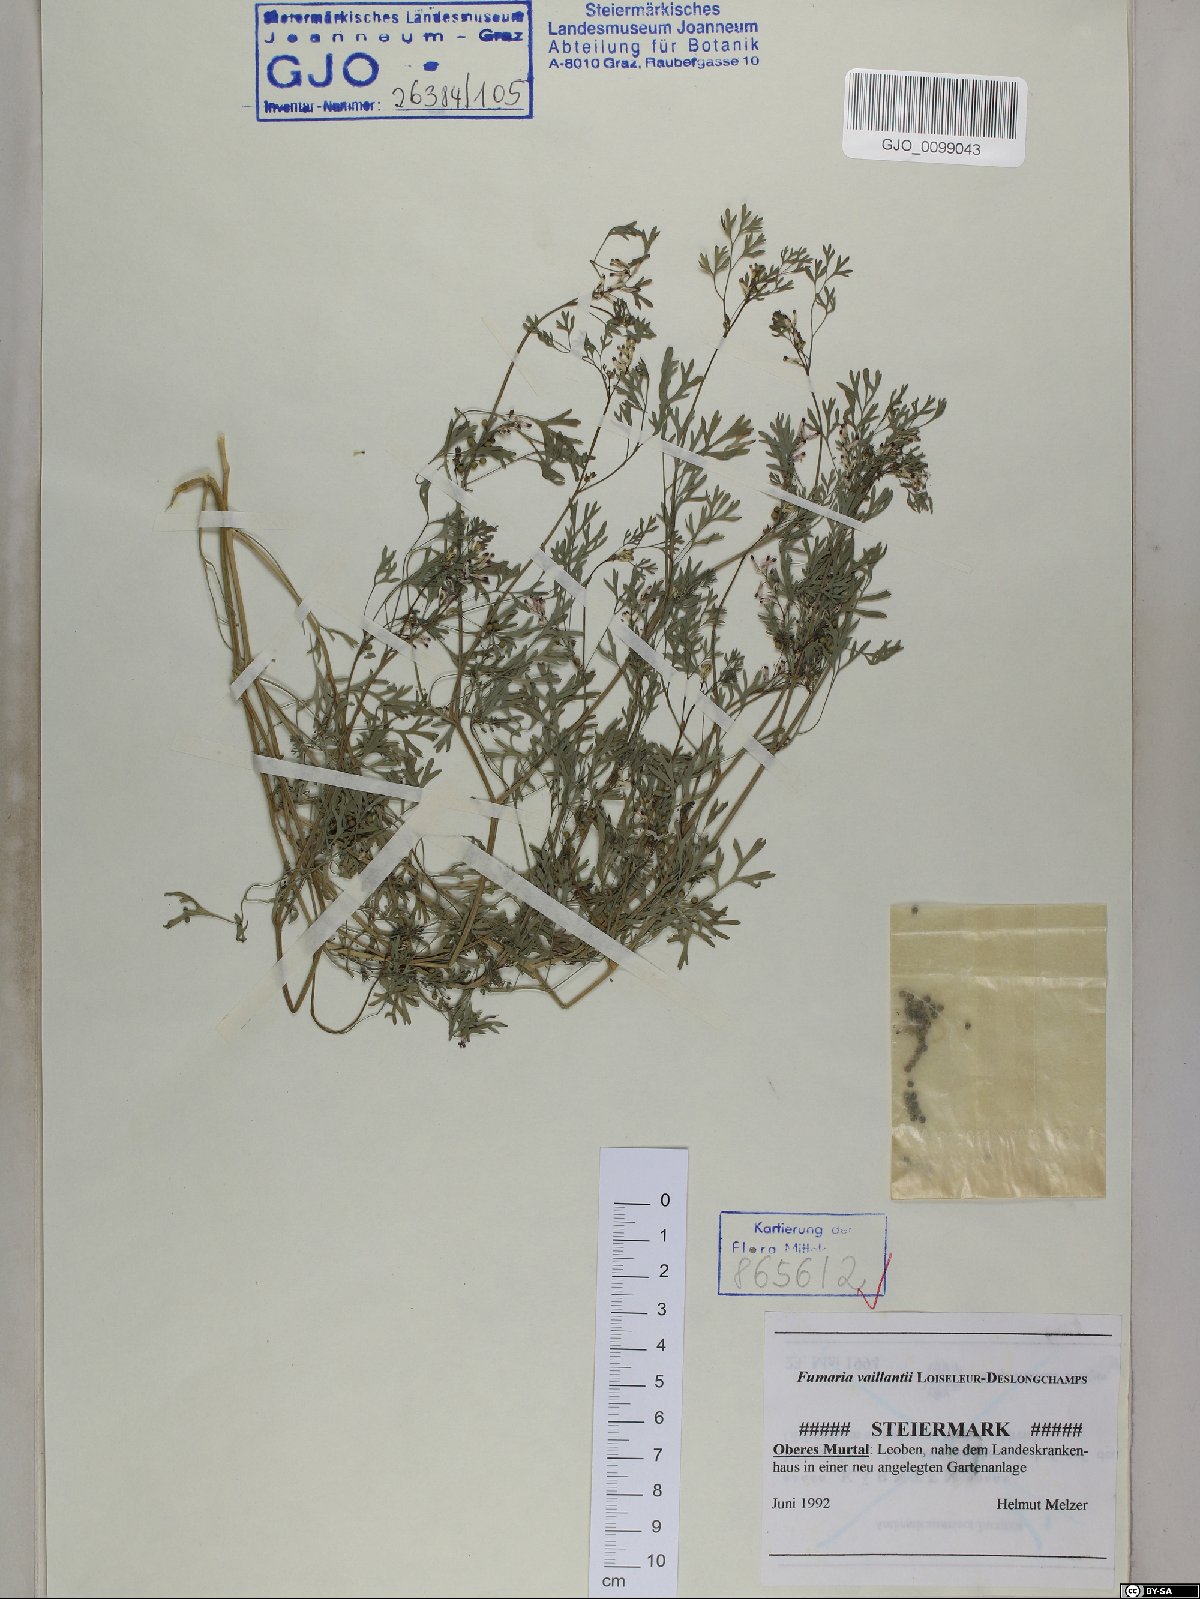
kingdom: Plantae
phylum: Tracheophyta
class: Magnoliopsida
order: Ranunculales
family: Papaveraceae
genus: Fumaria
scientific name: Fumaria vaillantii
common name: Few-flowered fumitory
